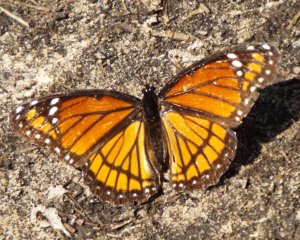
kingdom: Animalia
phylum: Arthropoda
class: Insecta
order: Lepidoptera
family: Nymphalidae
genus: Limenitis
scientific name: Limenitis archippus
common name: Viceroy
